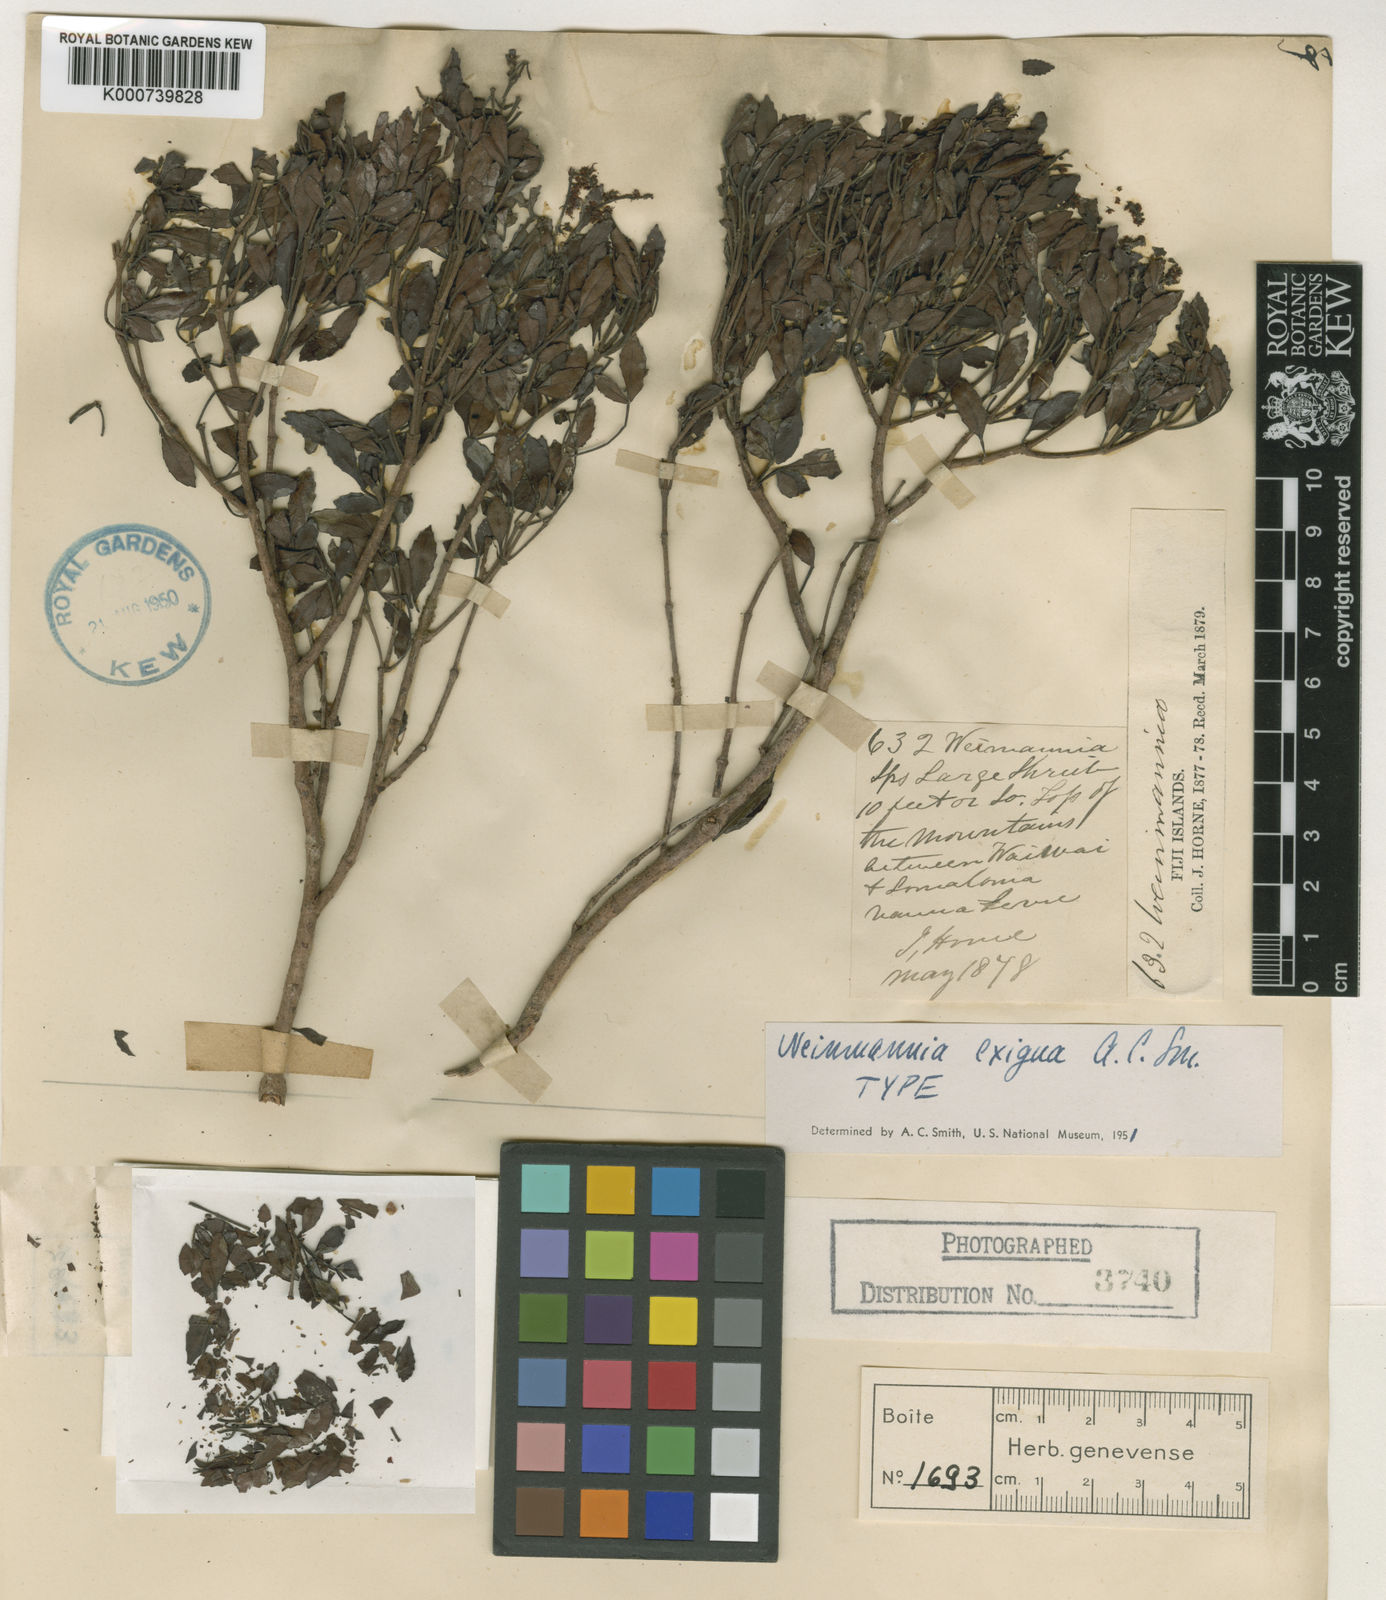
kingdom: Plantae
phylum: Tracheophyta
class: Magnoliopsida
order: Oxalidales
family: Cunoniaceae
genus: Pterophylla
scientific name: Pterophylla exigua
